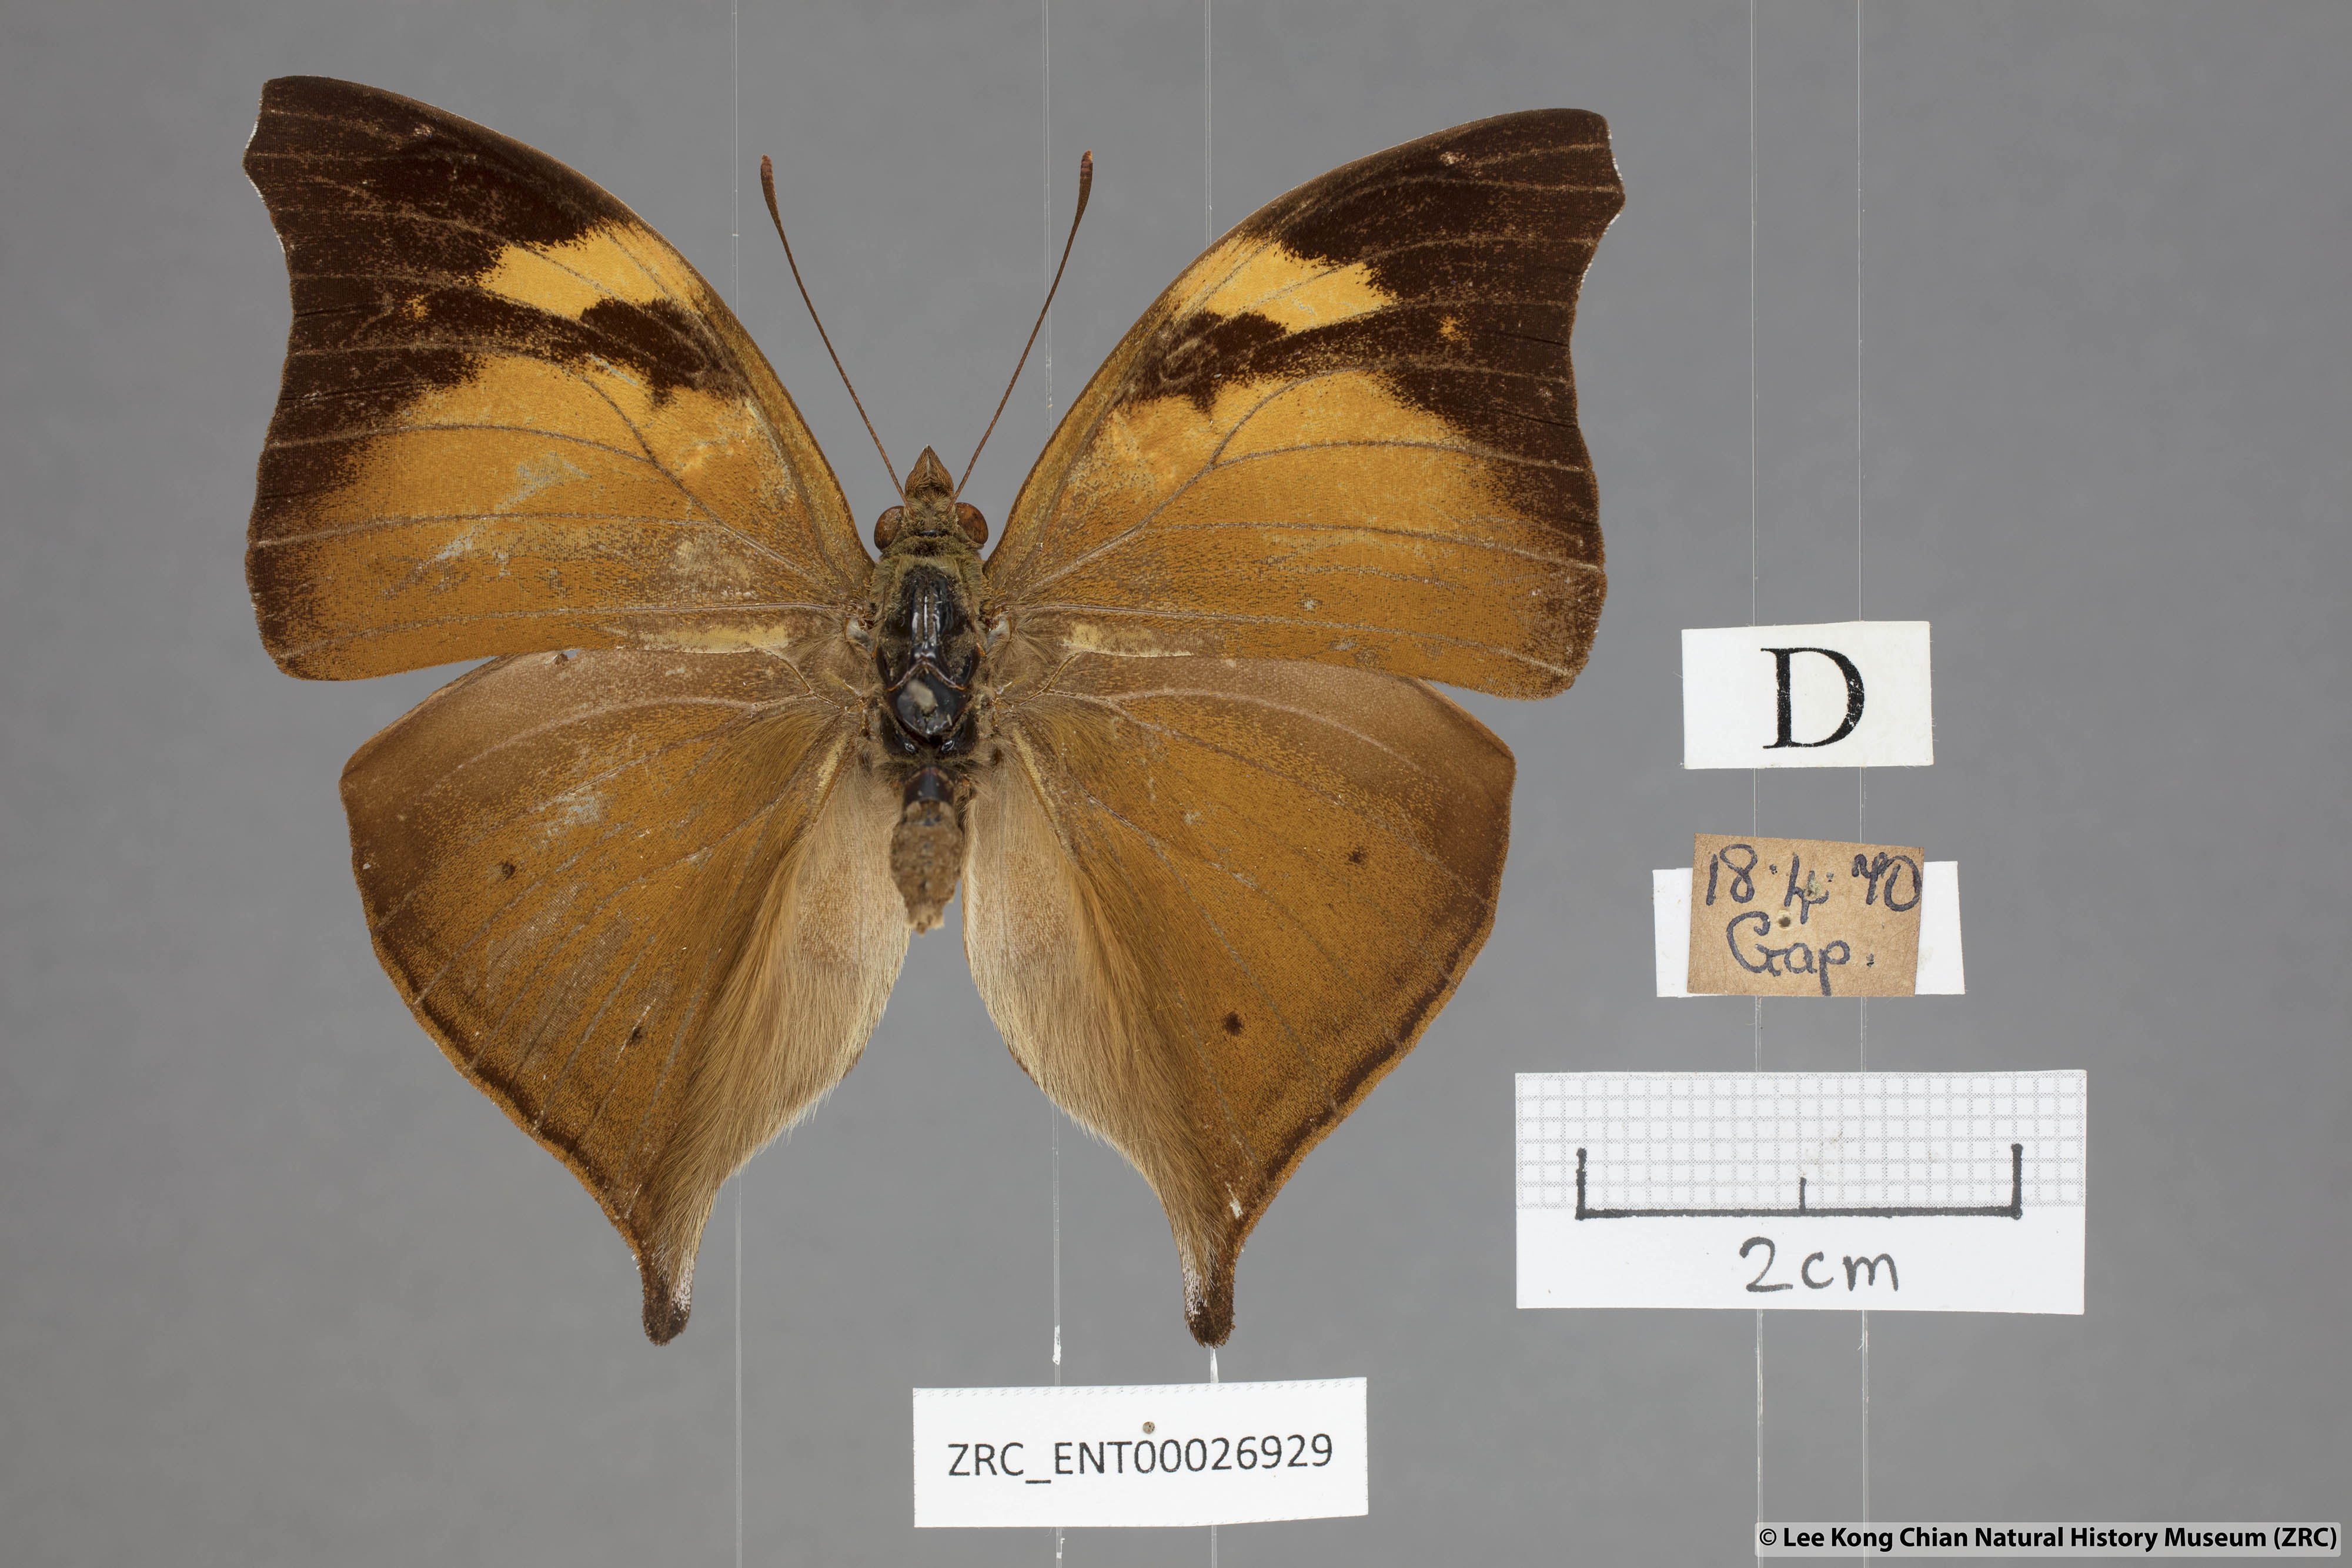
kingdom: Animalia
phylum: Arthropoda
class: Insecta
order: Lepidoptera
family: Nymphalidae
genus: Doleschallia
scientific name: Doleschallia bisaltide
